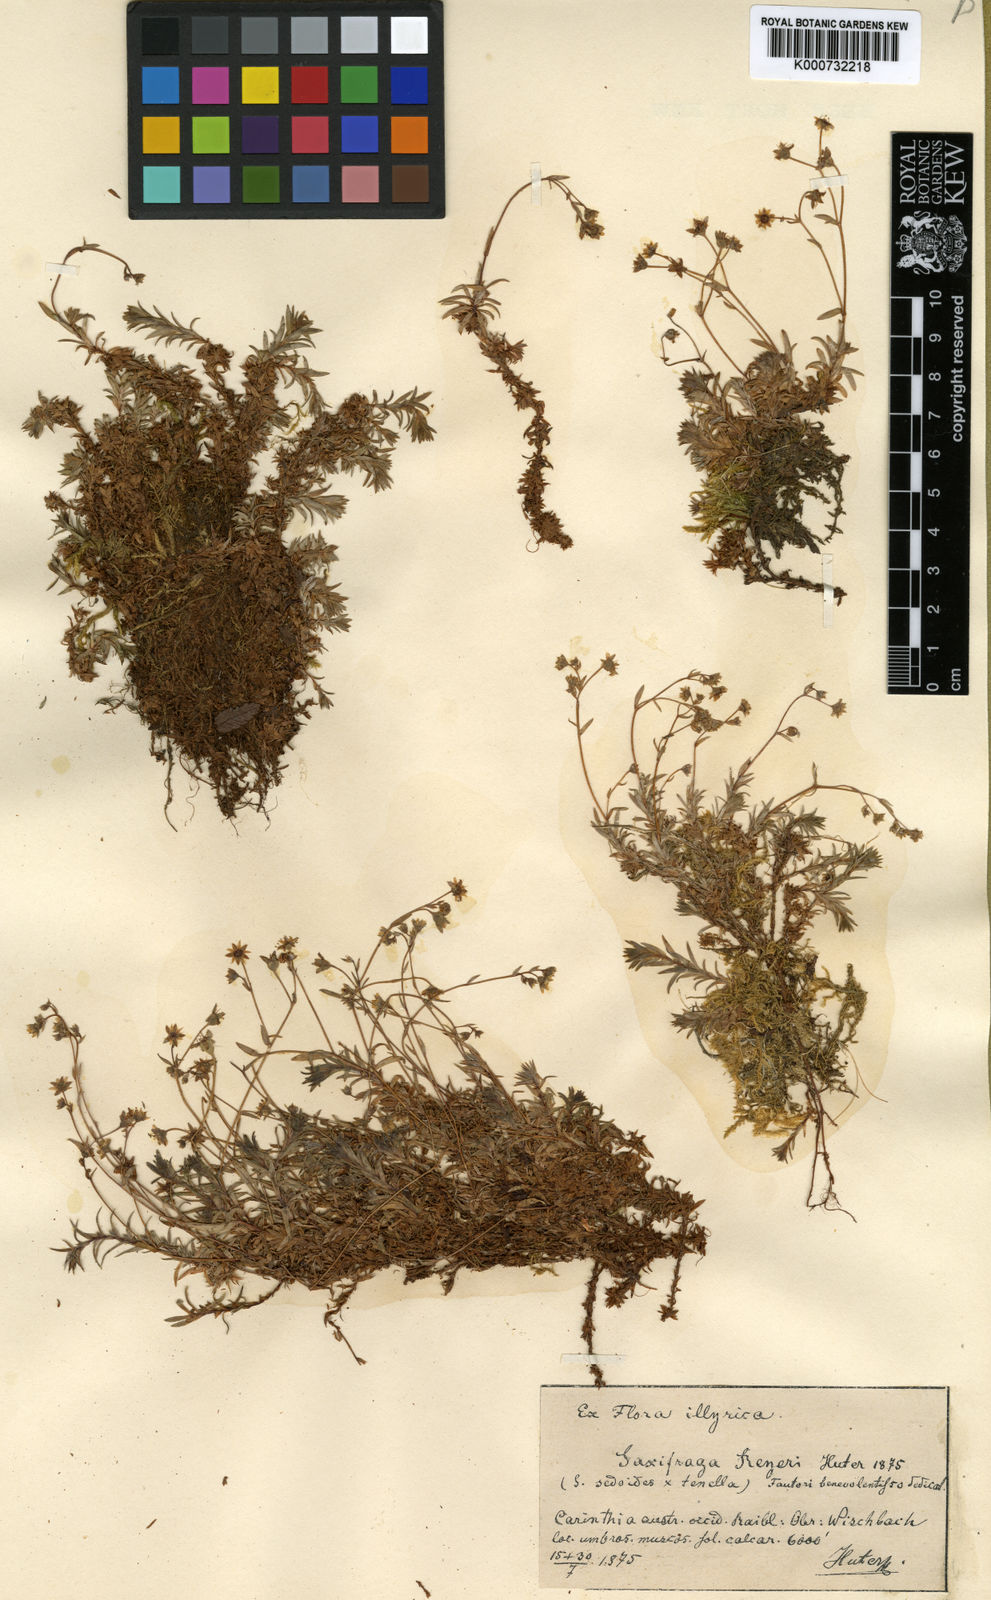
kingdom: Plantae
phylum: Tracheophyta
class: Magnoliopsida
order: Saxifragales
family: Saxifragaceae
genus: Saxifraga
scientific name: Saxifraga tenella
